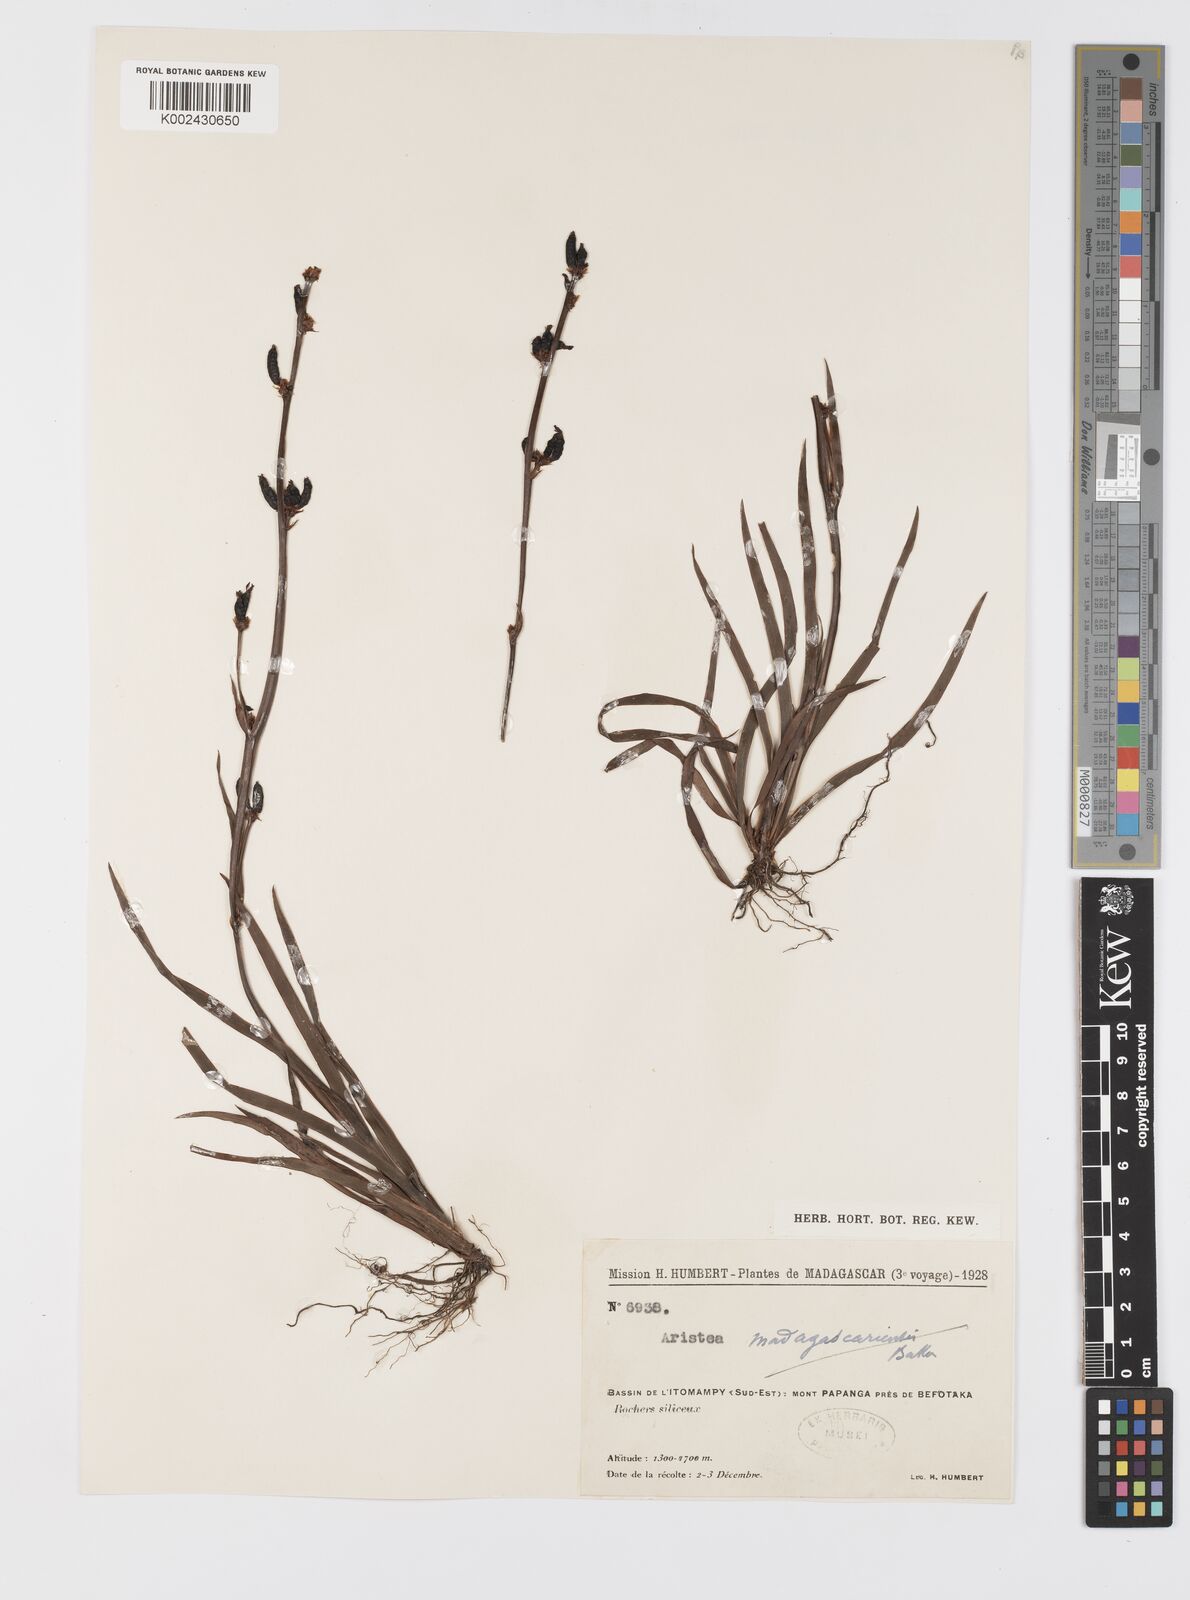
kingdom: Plantae
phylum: Tracheophyta
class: Liliopsida
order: Asparagales
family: Iridaceae
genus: Aristea
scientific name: Aristea cladocarpa
